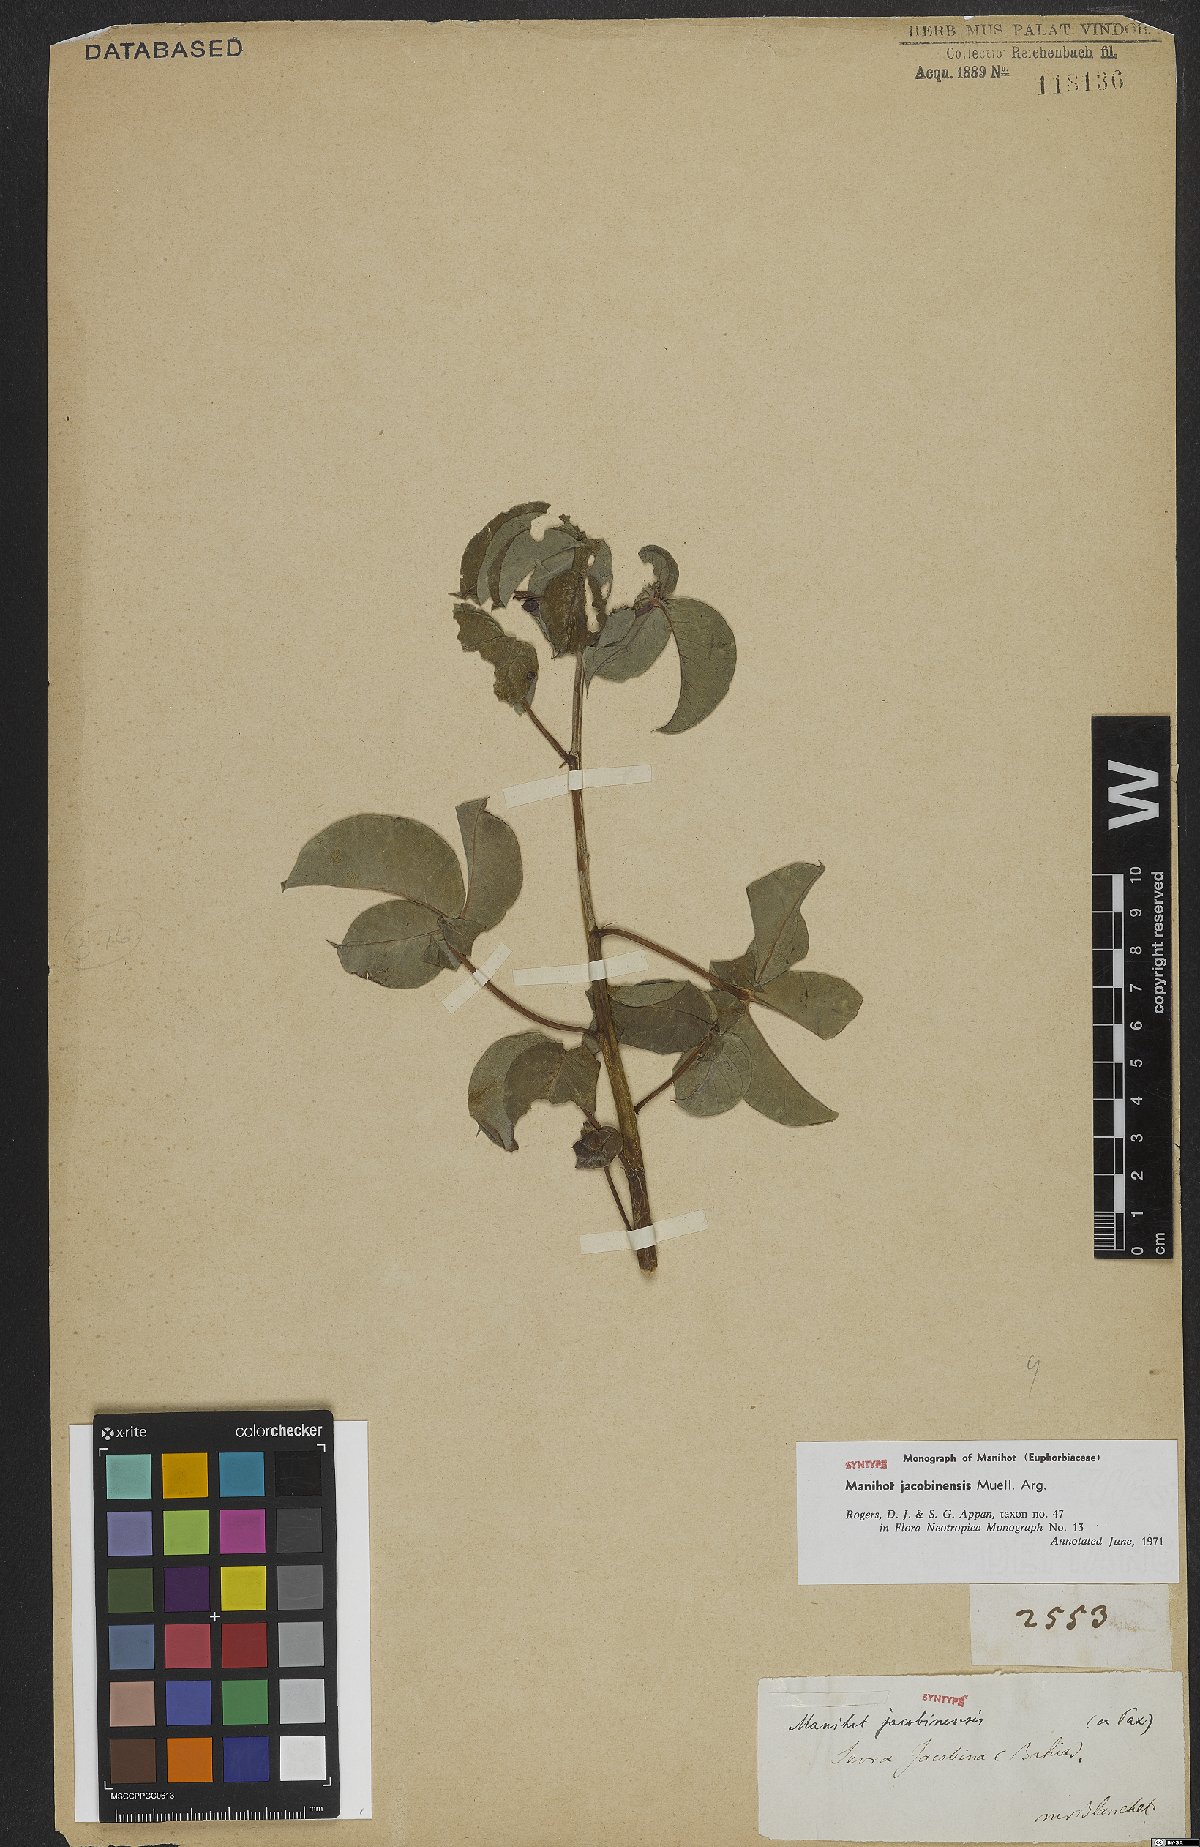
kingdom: Plantae
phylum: Tracheophyta
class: Magnoliopsida
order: Malpighiales
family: Euphorbiaceae
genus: Manihot
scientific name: Manihot jacobinensis
